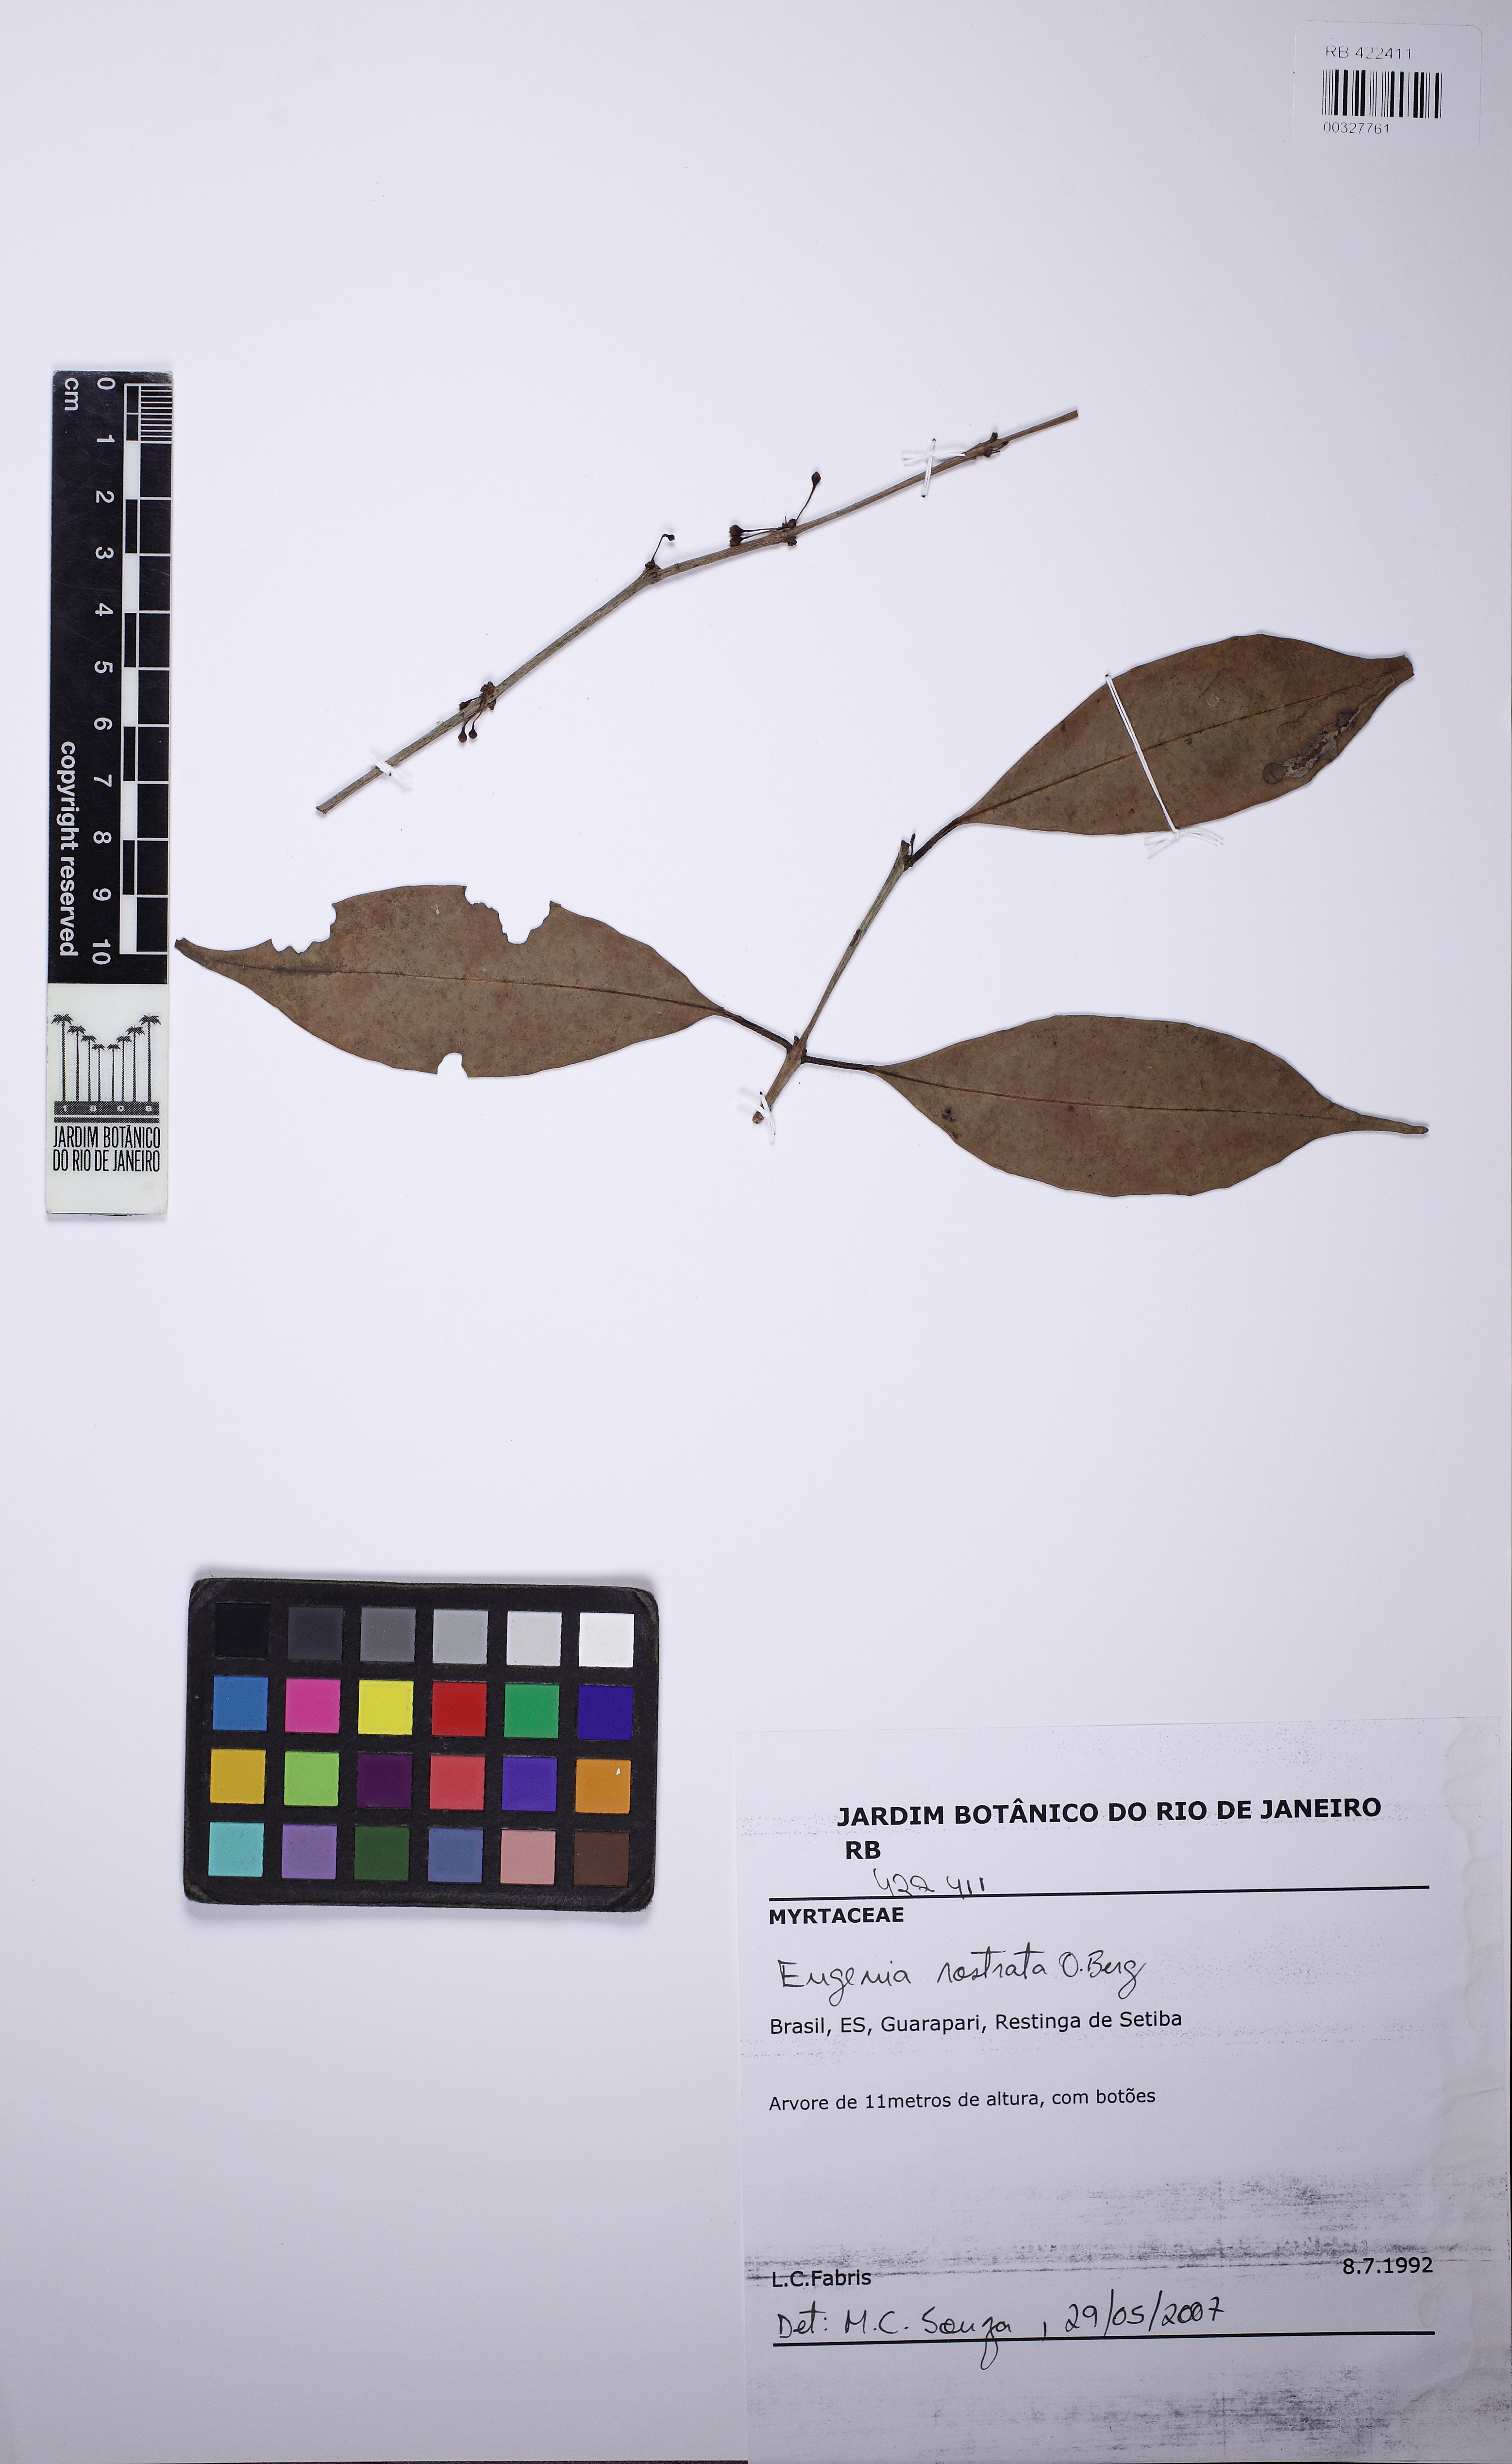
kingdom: Plantae
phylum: Tracheophyta
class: Magnoliopsida
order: Myrtales
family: Myrtaceae
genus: Eugenia
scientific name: Eugenia rostrata
